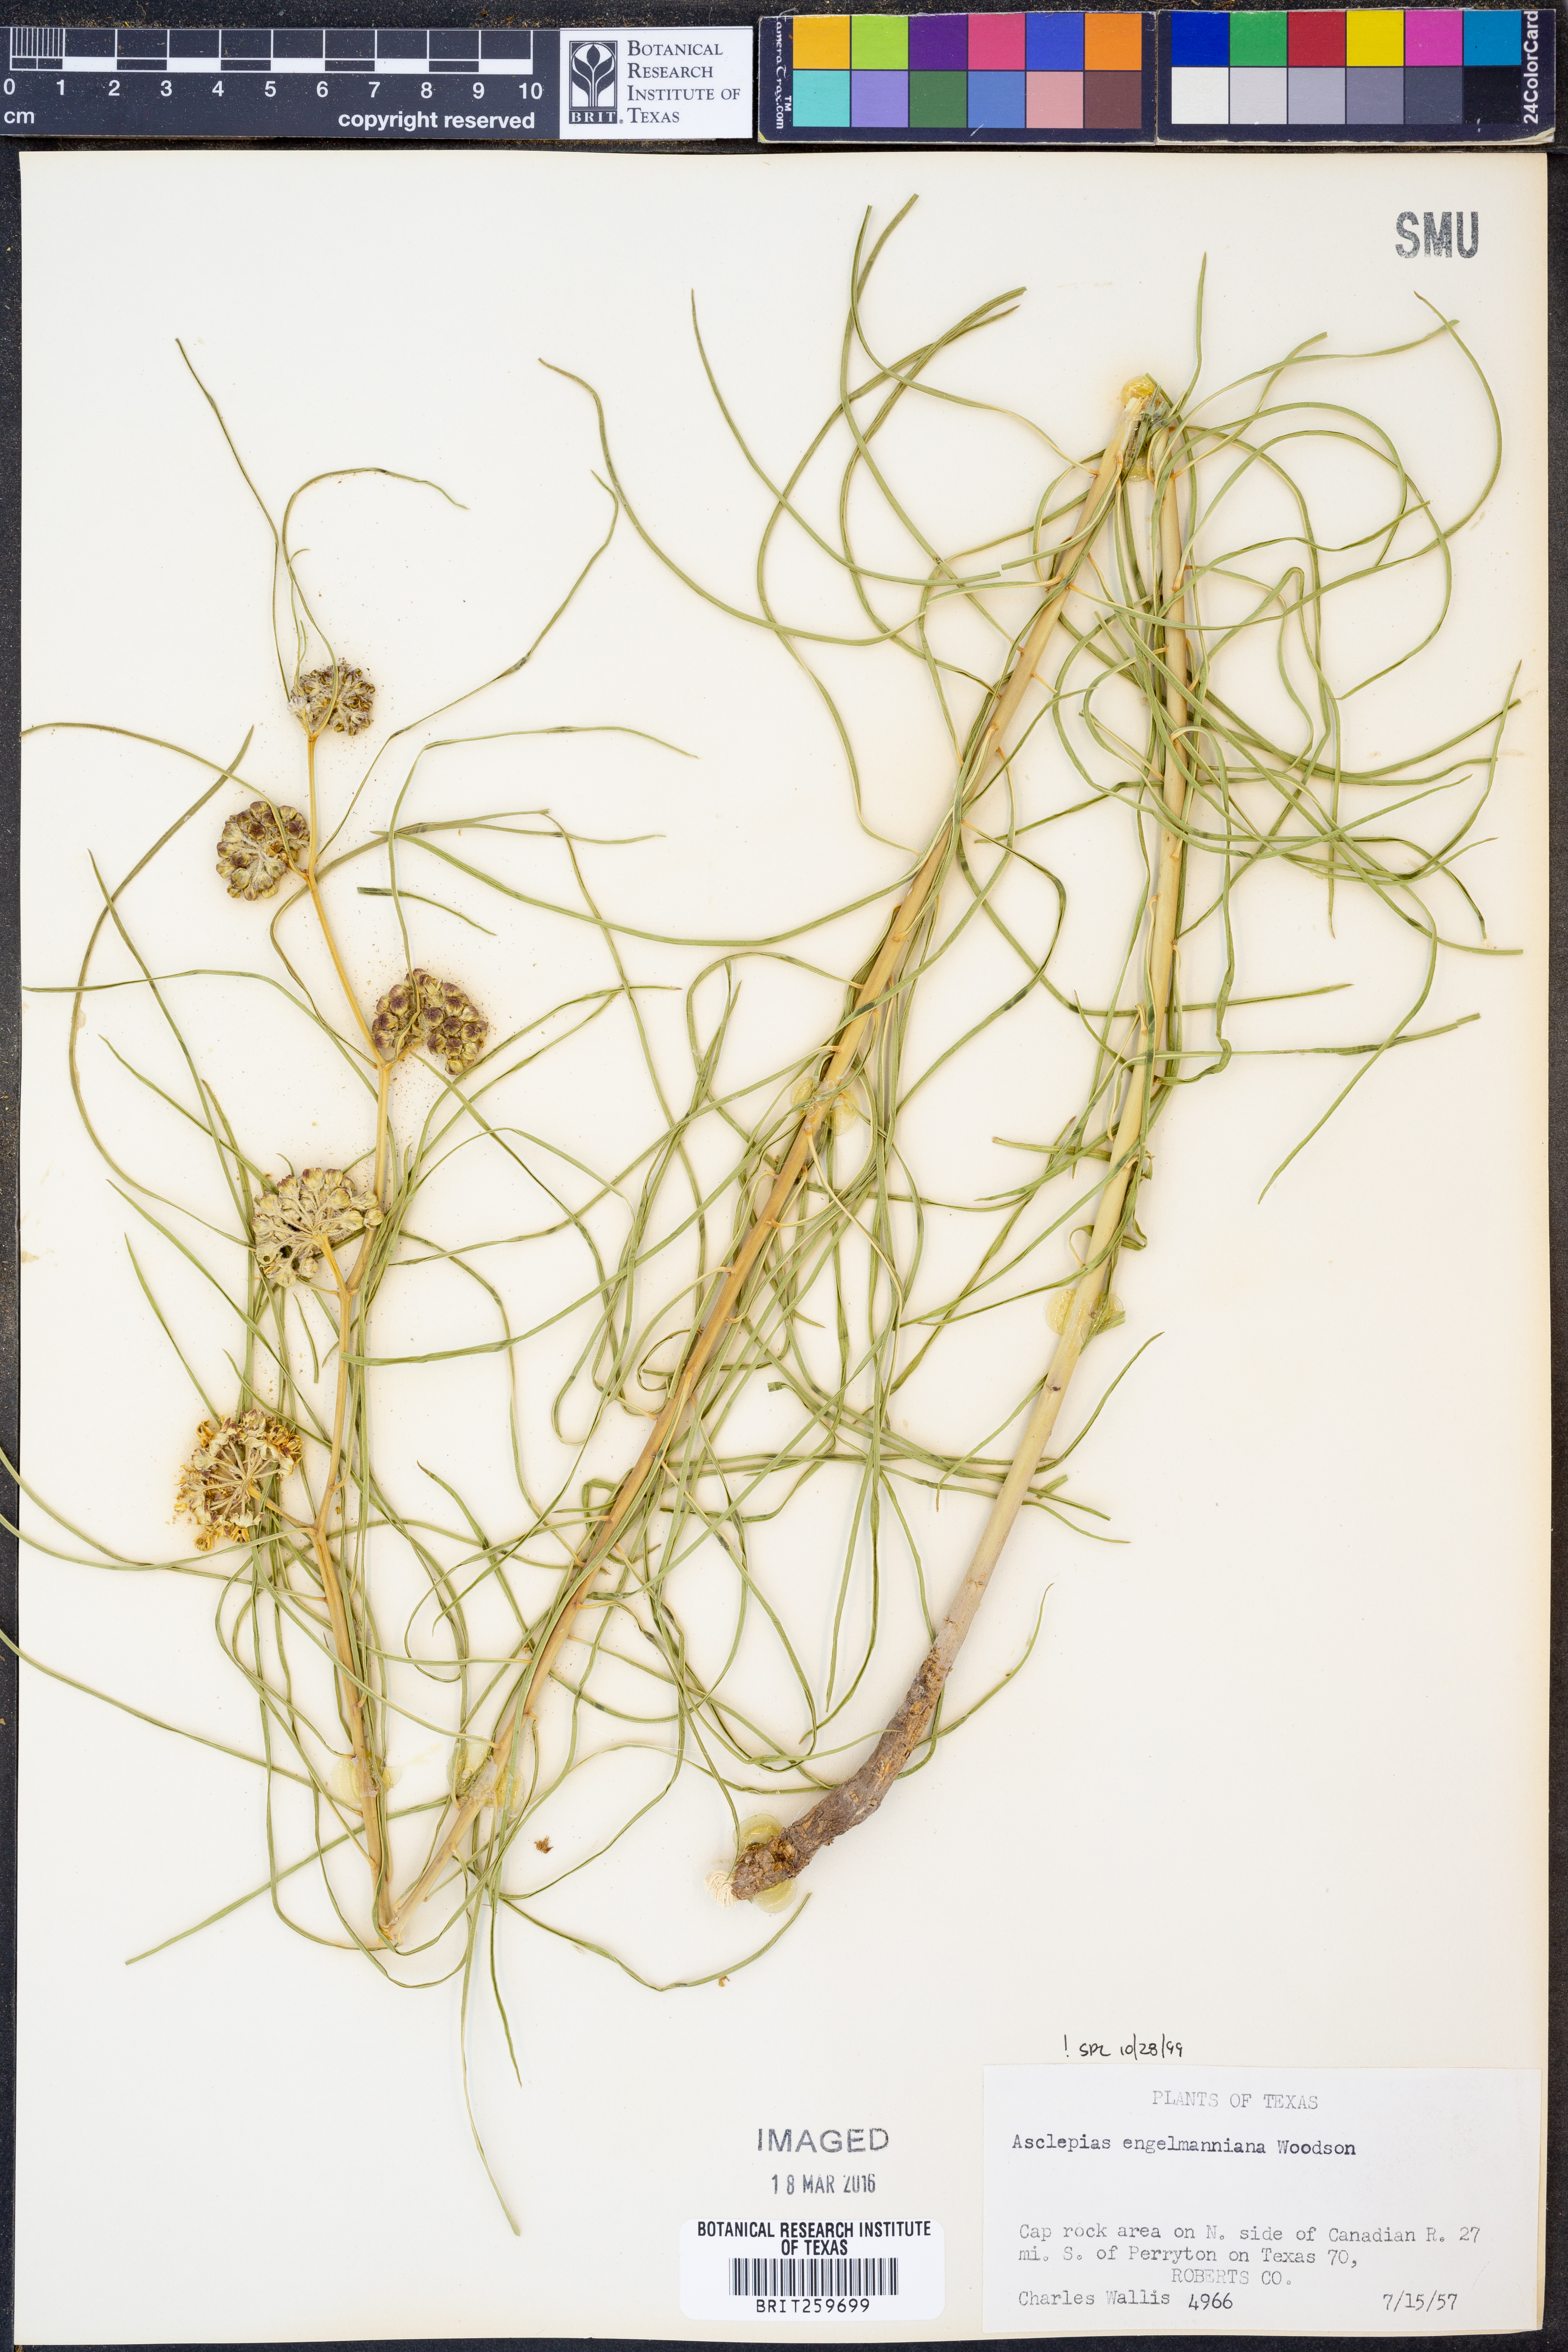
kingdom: Plantae
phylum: Tracheophyta
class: Magnoliopsida
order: Gentianales
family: Apocynaceae
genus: Asclepias
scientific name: Asclepias engelmanniana
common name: Engelmann's milkweed
